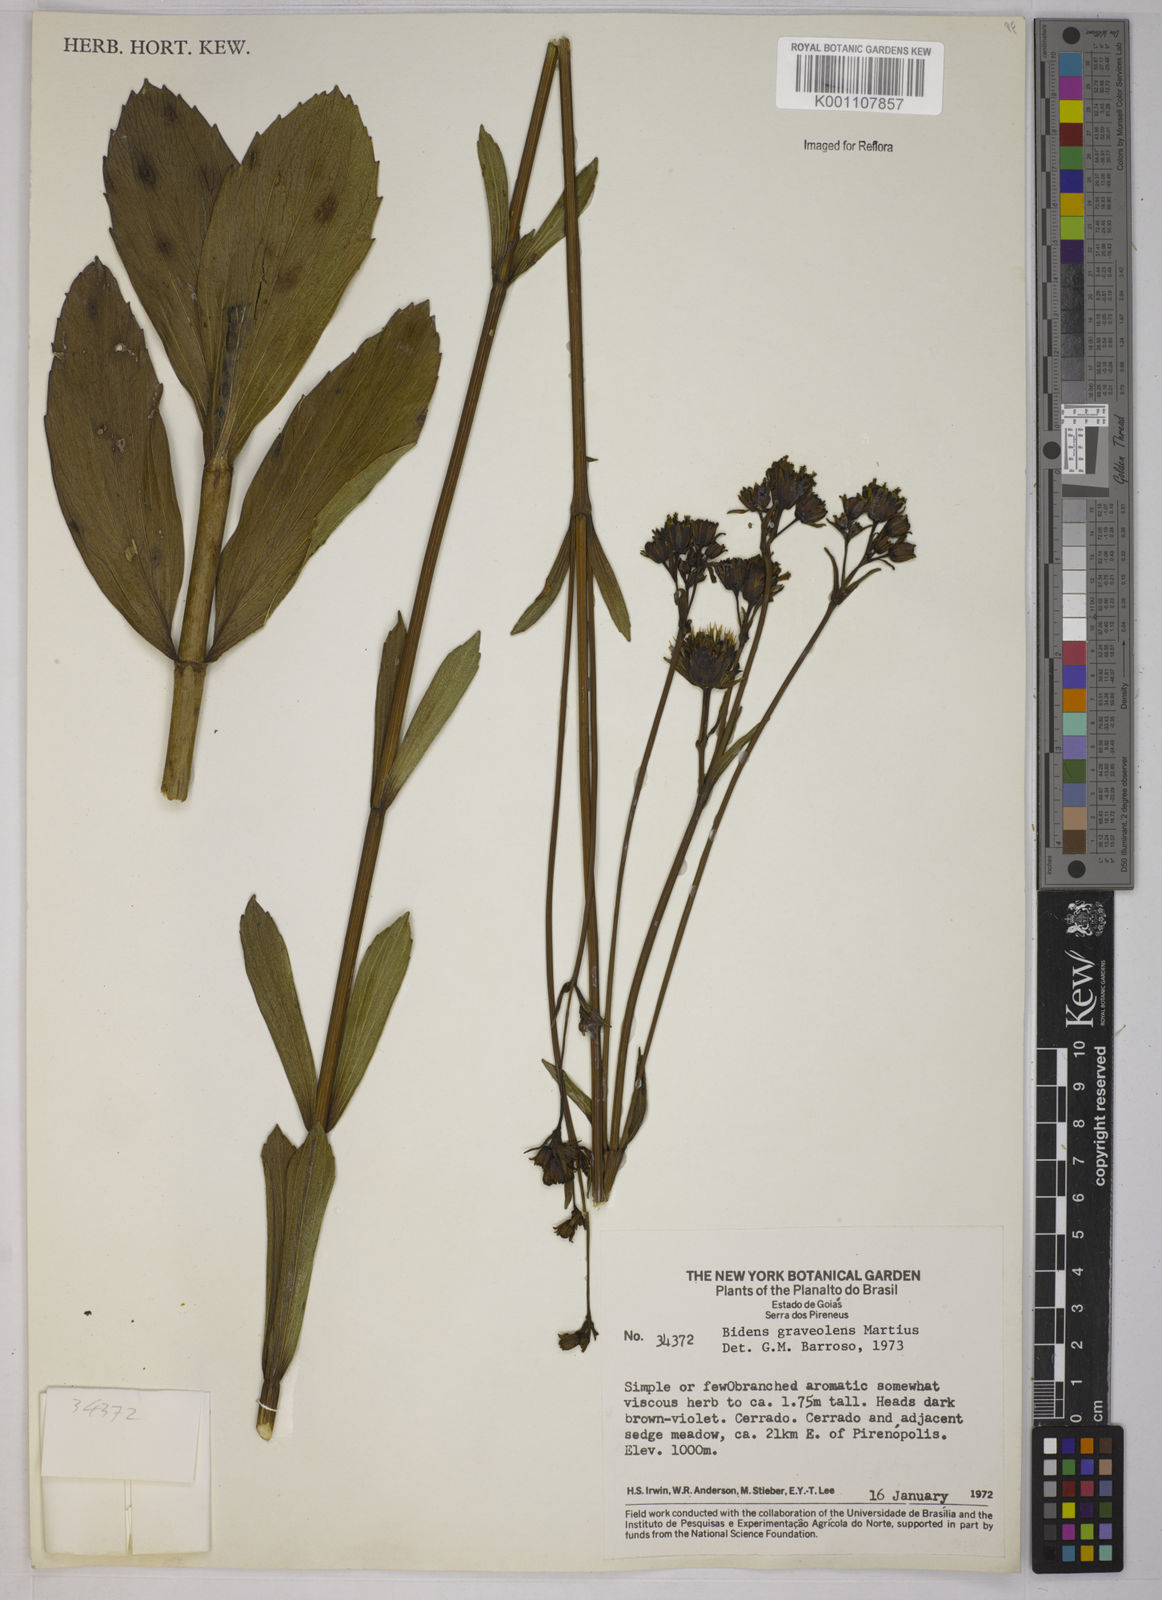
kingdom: Plantae
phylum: Tracheophyta
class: Magnoliopsida
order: Asterales
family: Asteraceae
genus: Bidens
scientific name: Bidens
